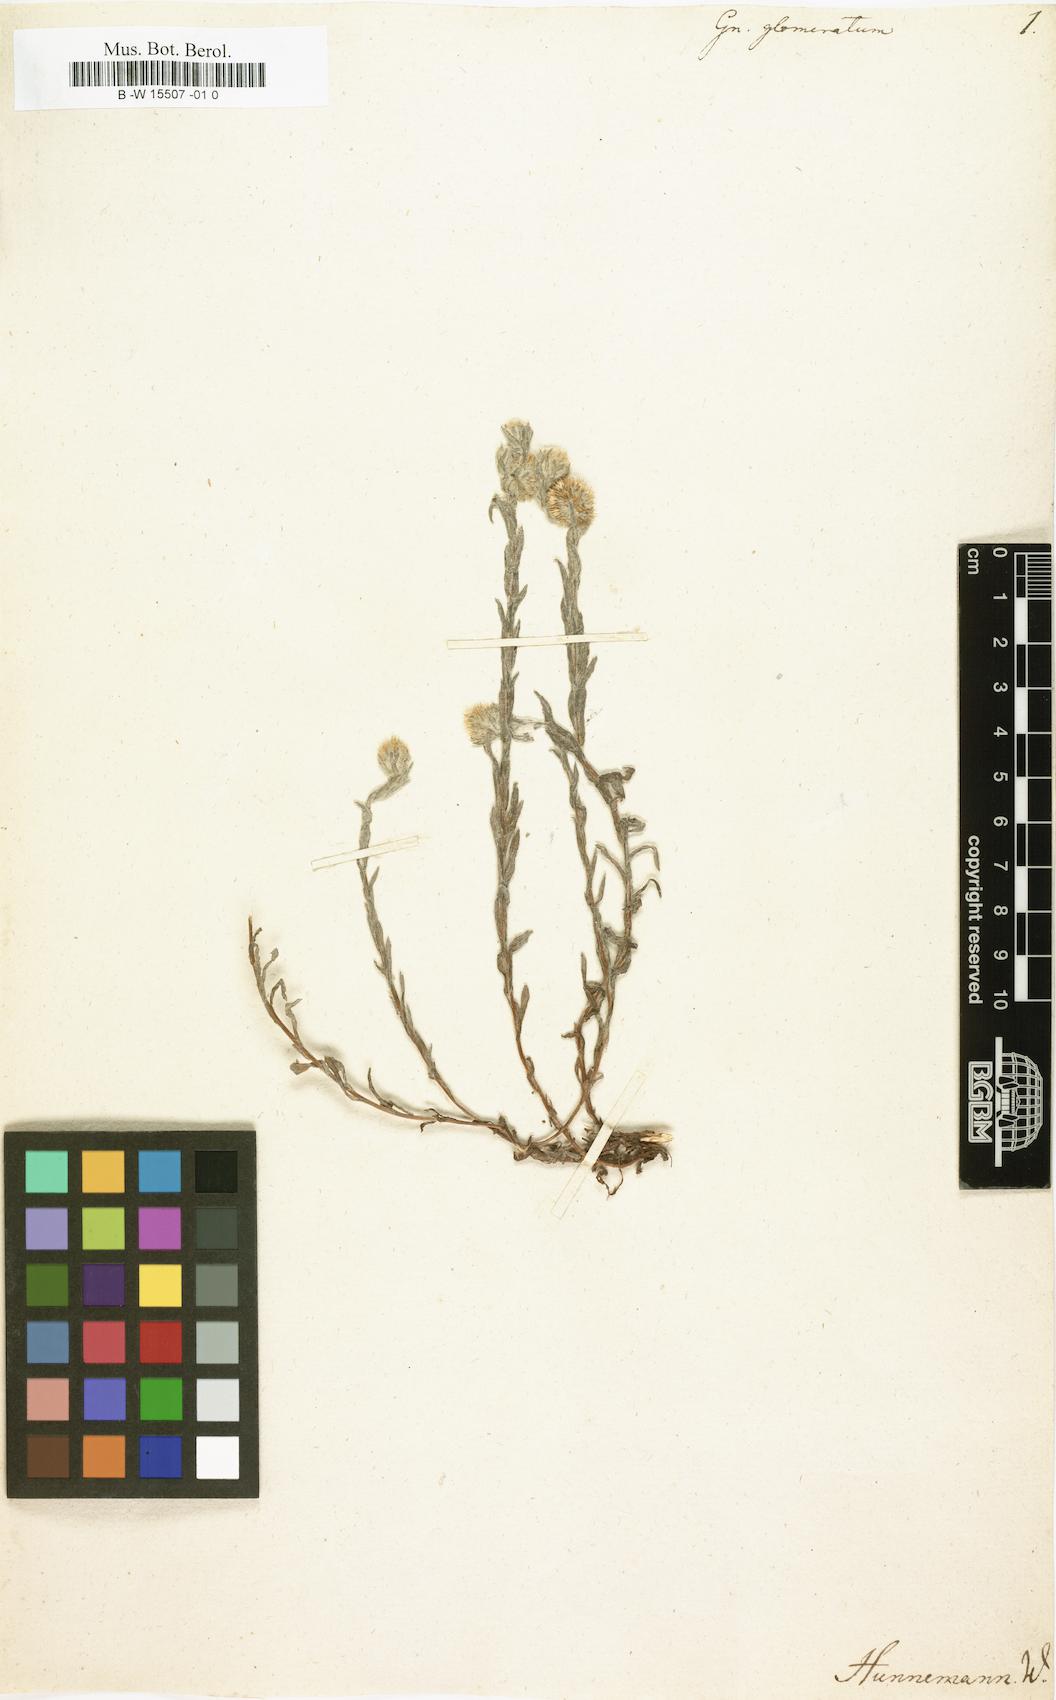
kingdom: Plantae
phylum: Tracheophyta
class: Magnoliopsida
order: Asterales
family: Asteraceae
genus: Gnaphalium
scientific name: Gnaphalium glomeratum
